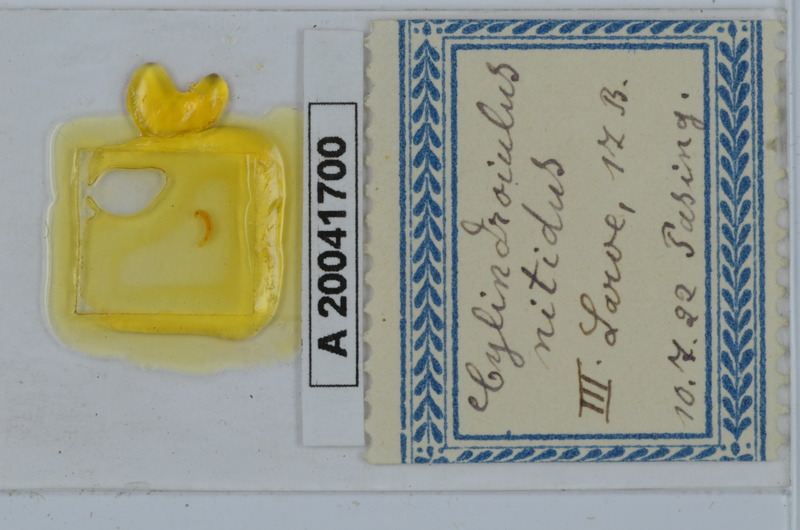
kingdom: Animalia
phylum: Arthropoda
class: Diplopoda
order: Julida
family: Julidae
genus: Allajulus
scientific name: Allajulus nitidus
